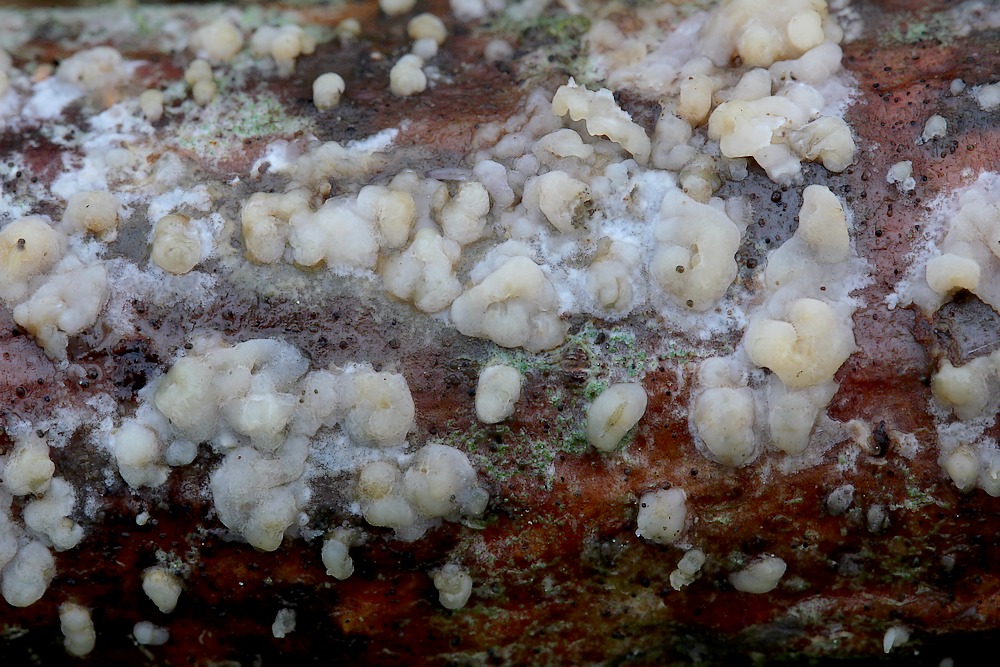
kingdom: Fungi
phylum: Basidiomycota
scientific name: Basidiomycota
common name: basidiesvampe
